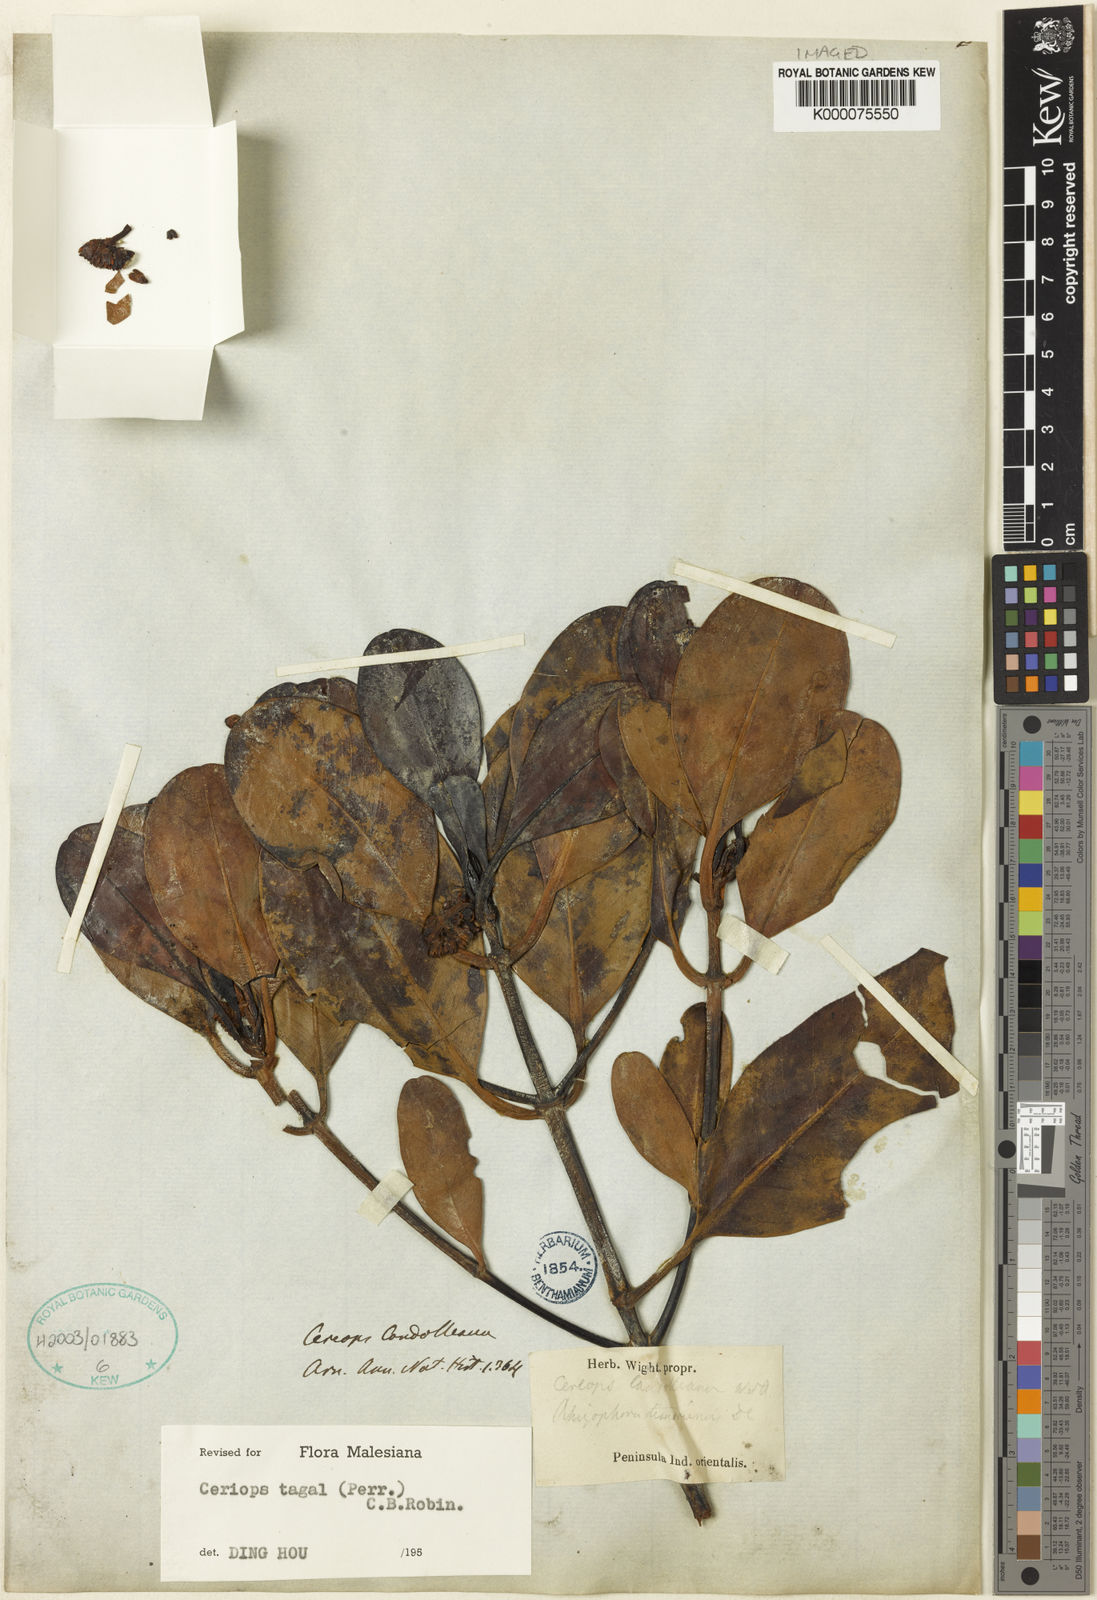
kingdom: Plantae
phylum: Tracheophyta
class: Magnoliopsida
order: Malpighiales
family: Rhizophoraceae
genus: Ceriops
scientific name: Ceriops tagal
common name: Spurred mangrove
